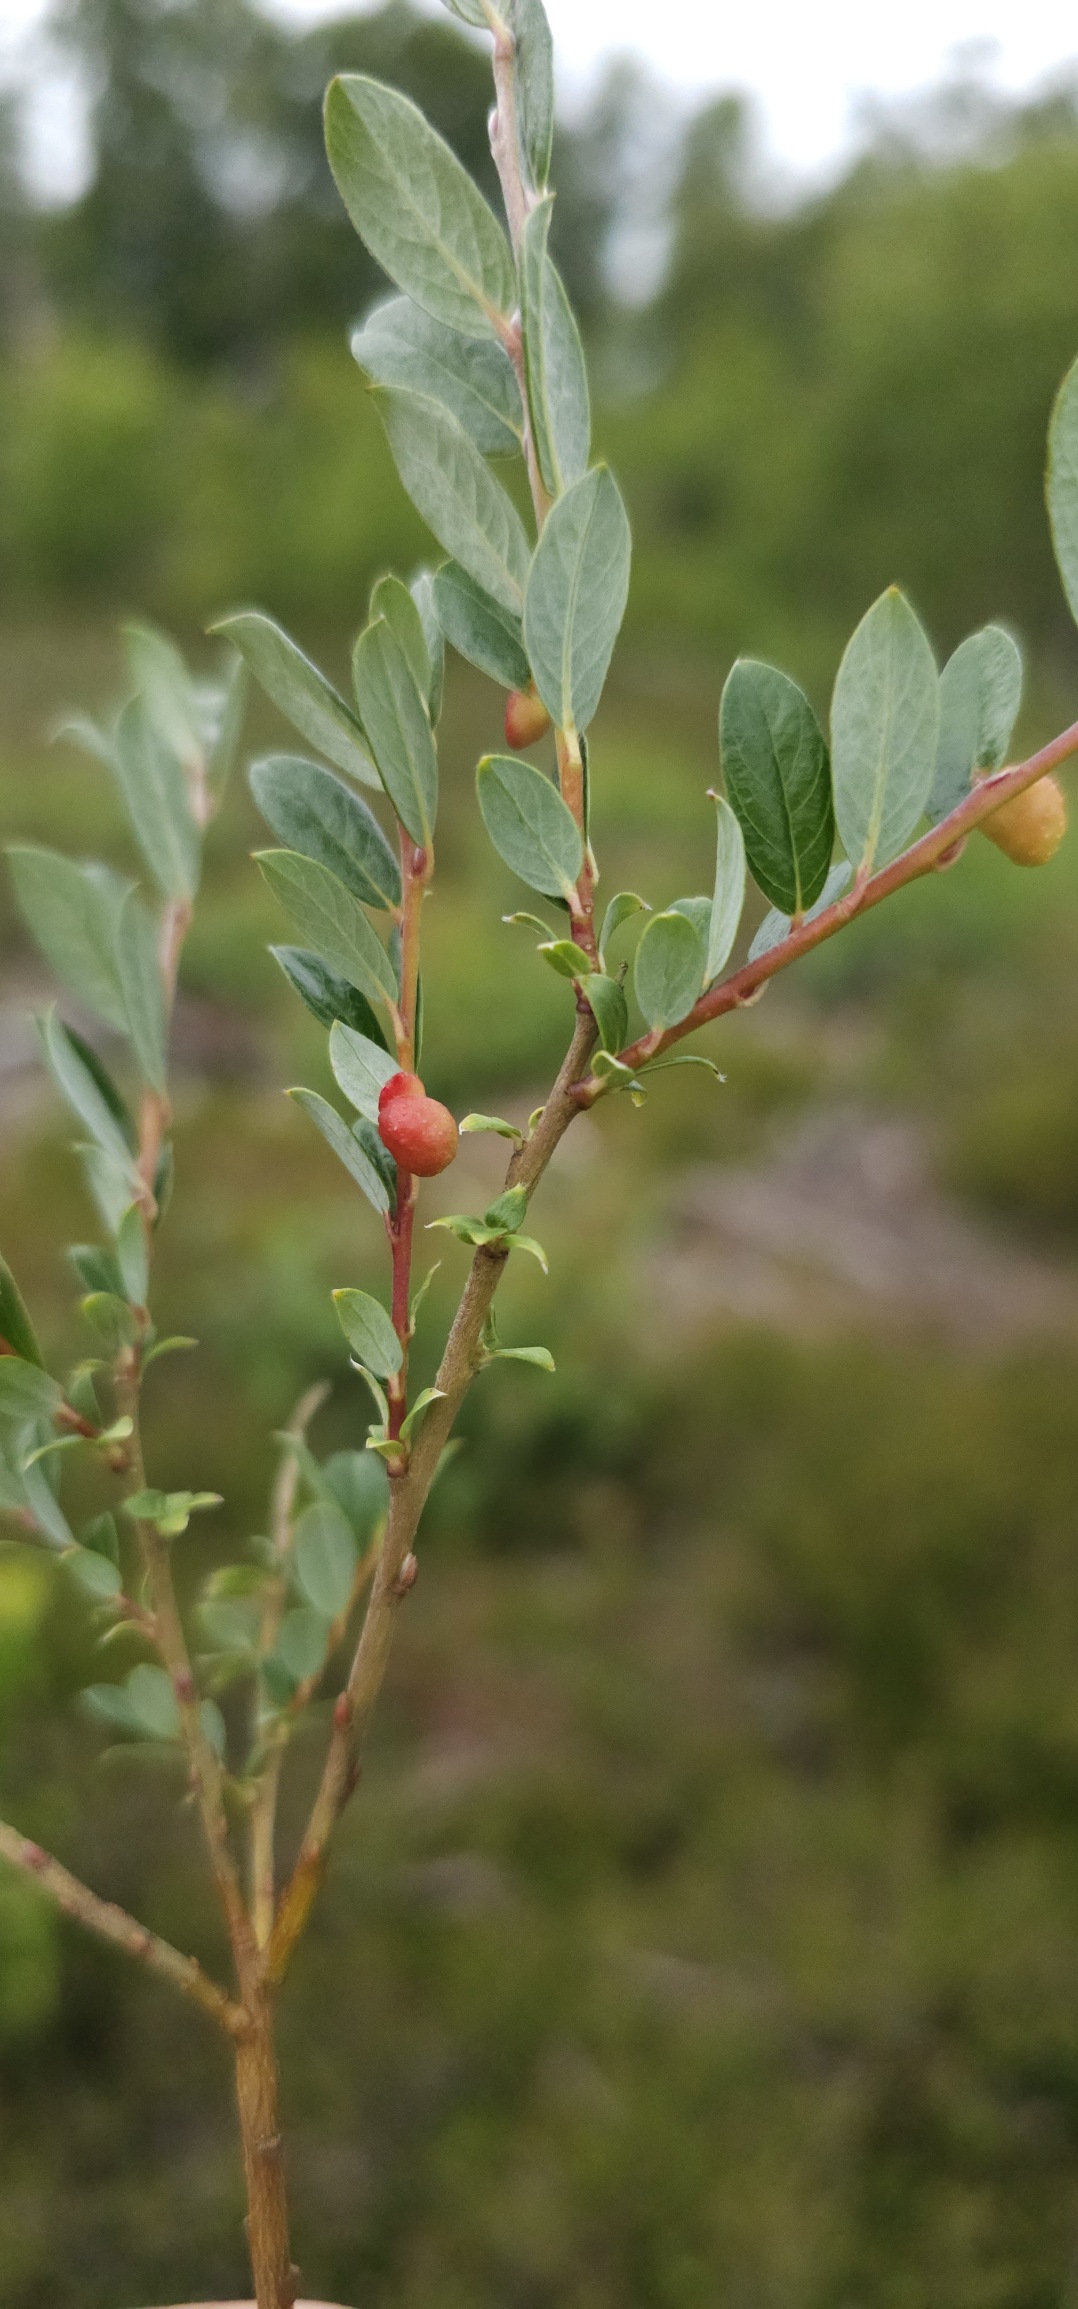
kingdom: Plantae
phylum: Tracheophyta
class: Magnoliopsida
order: Malpighiales
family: Salicaceae
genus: Salix
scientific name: Salix repens
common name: Krybende pil
